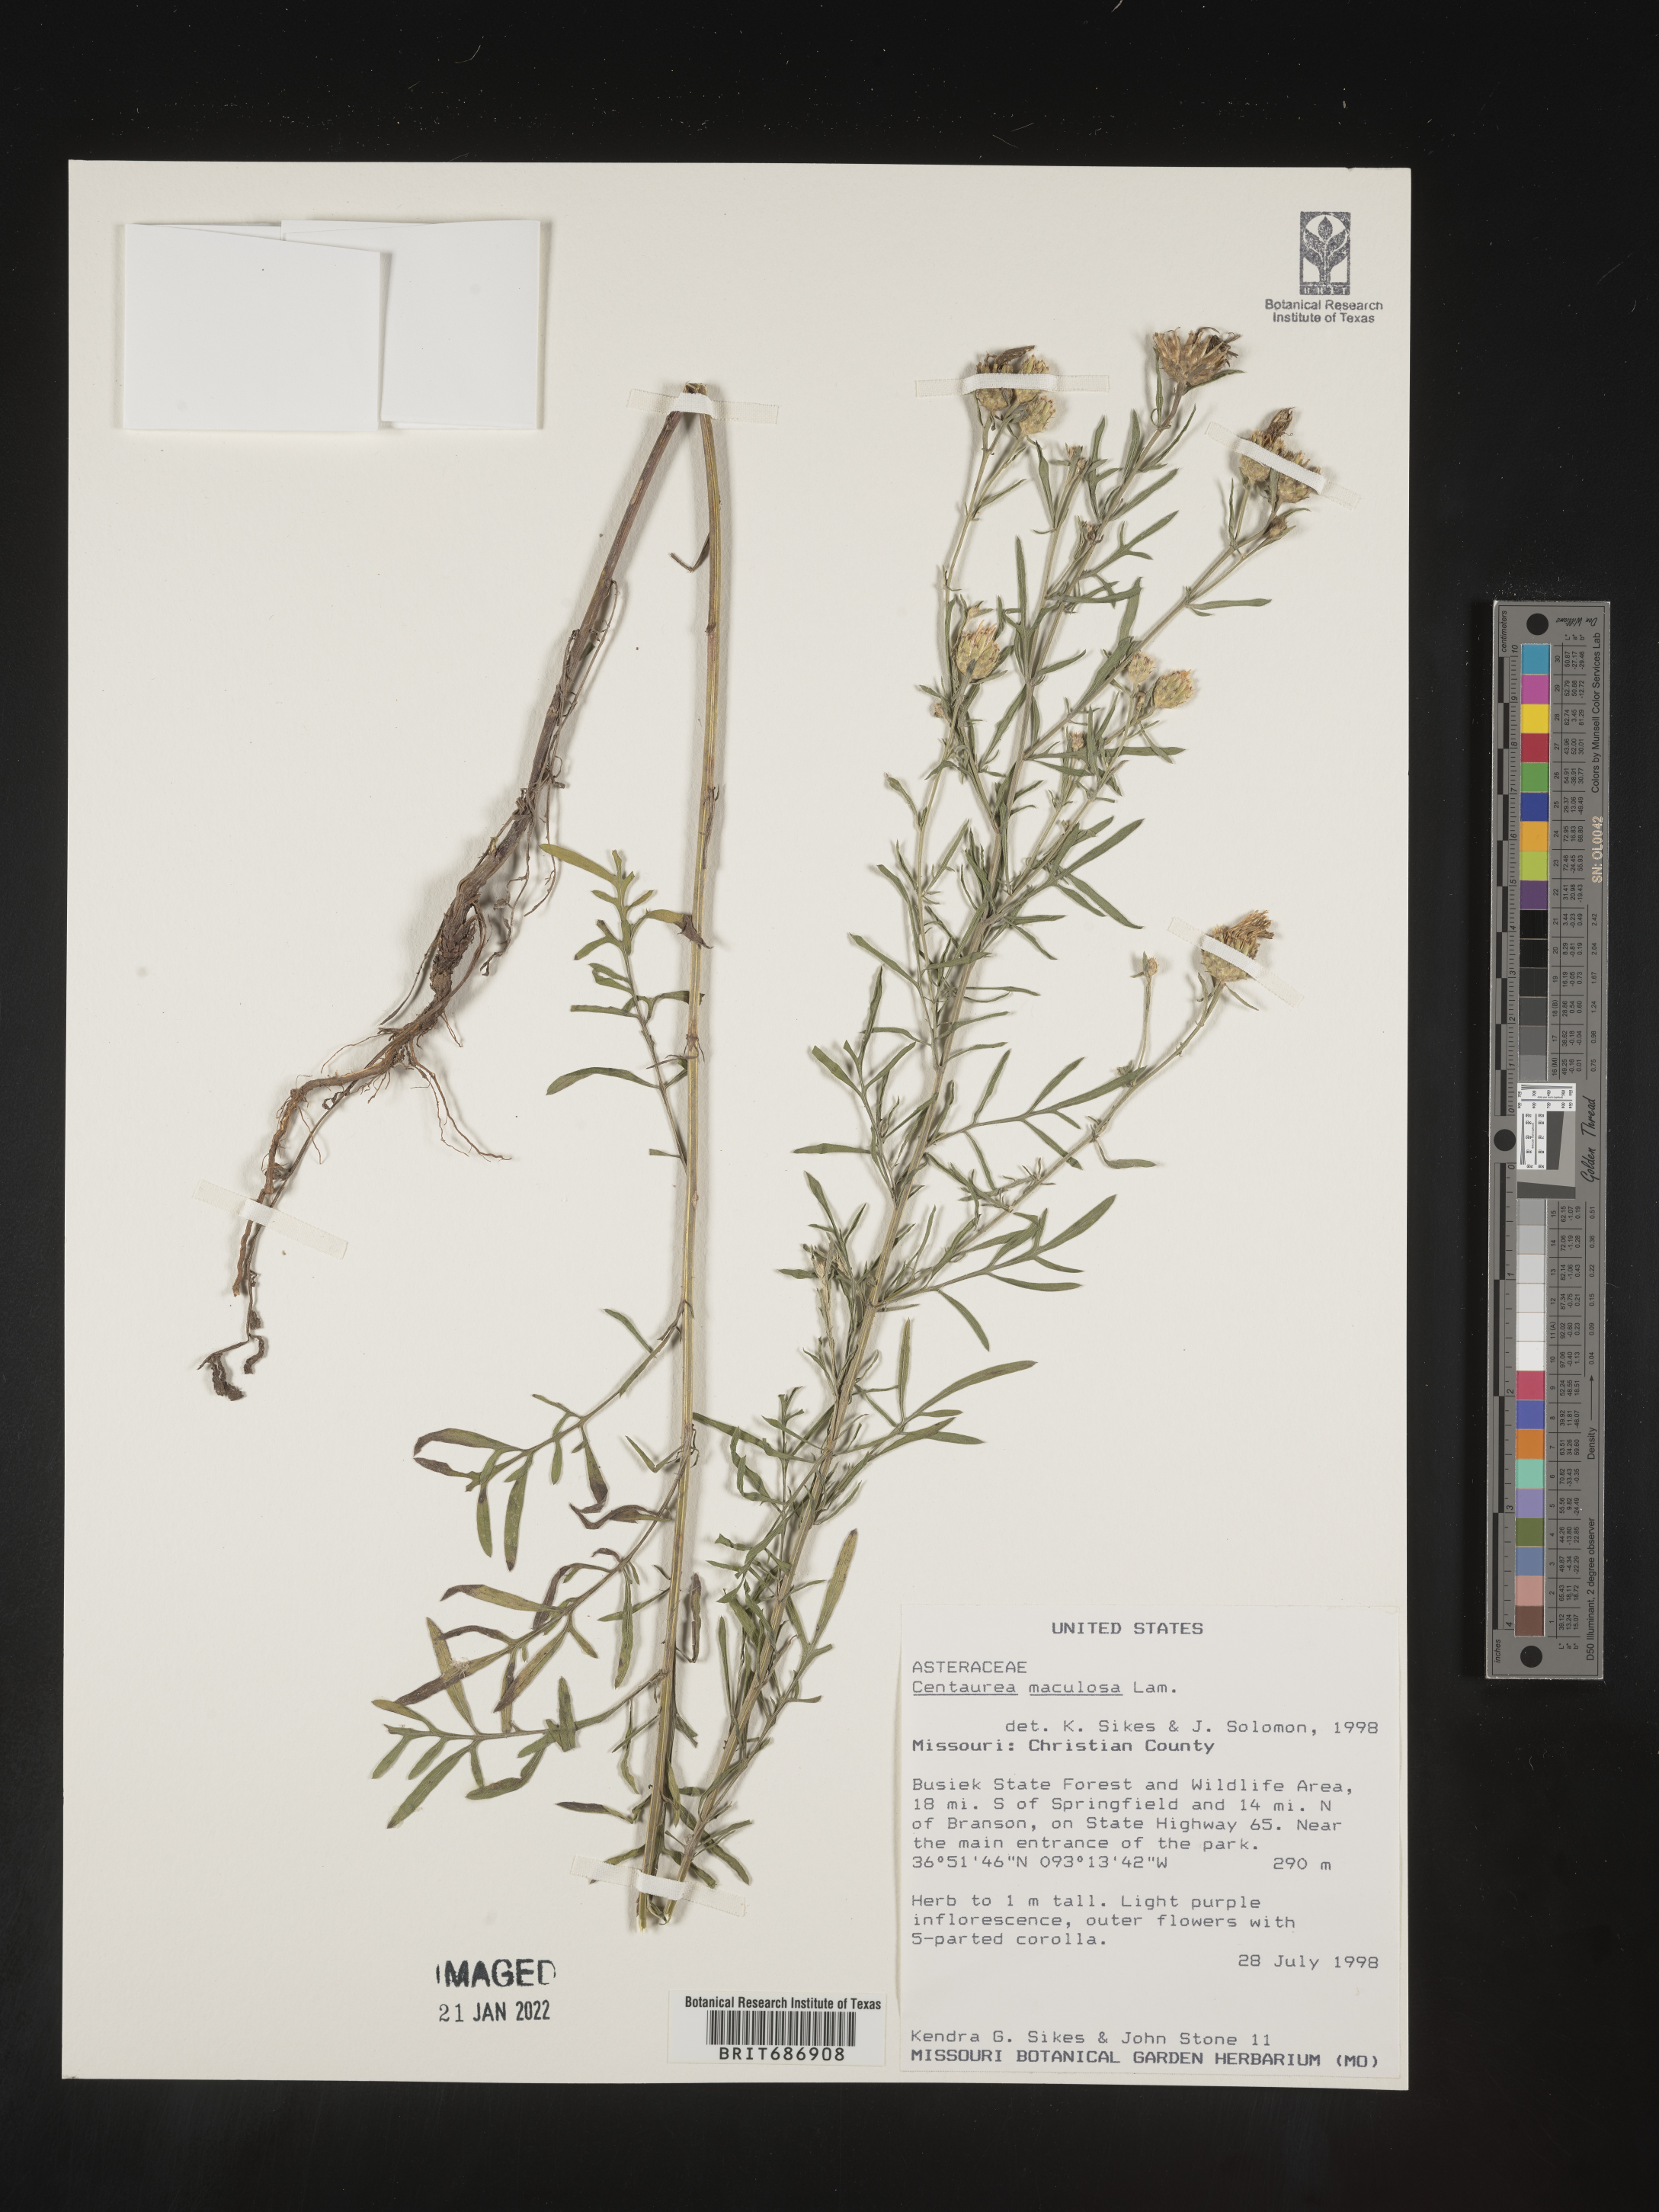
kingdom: Plantae
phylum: Tracheophyta
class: Magnoliopsida
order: Asterales
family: Asteraceae
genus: Centaurea
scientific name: Centaurea stoebe
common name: Spotted knapweed
